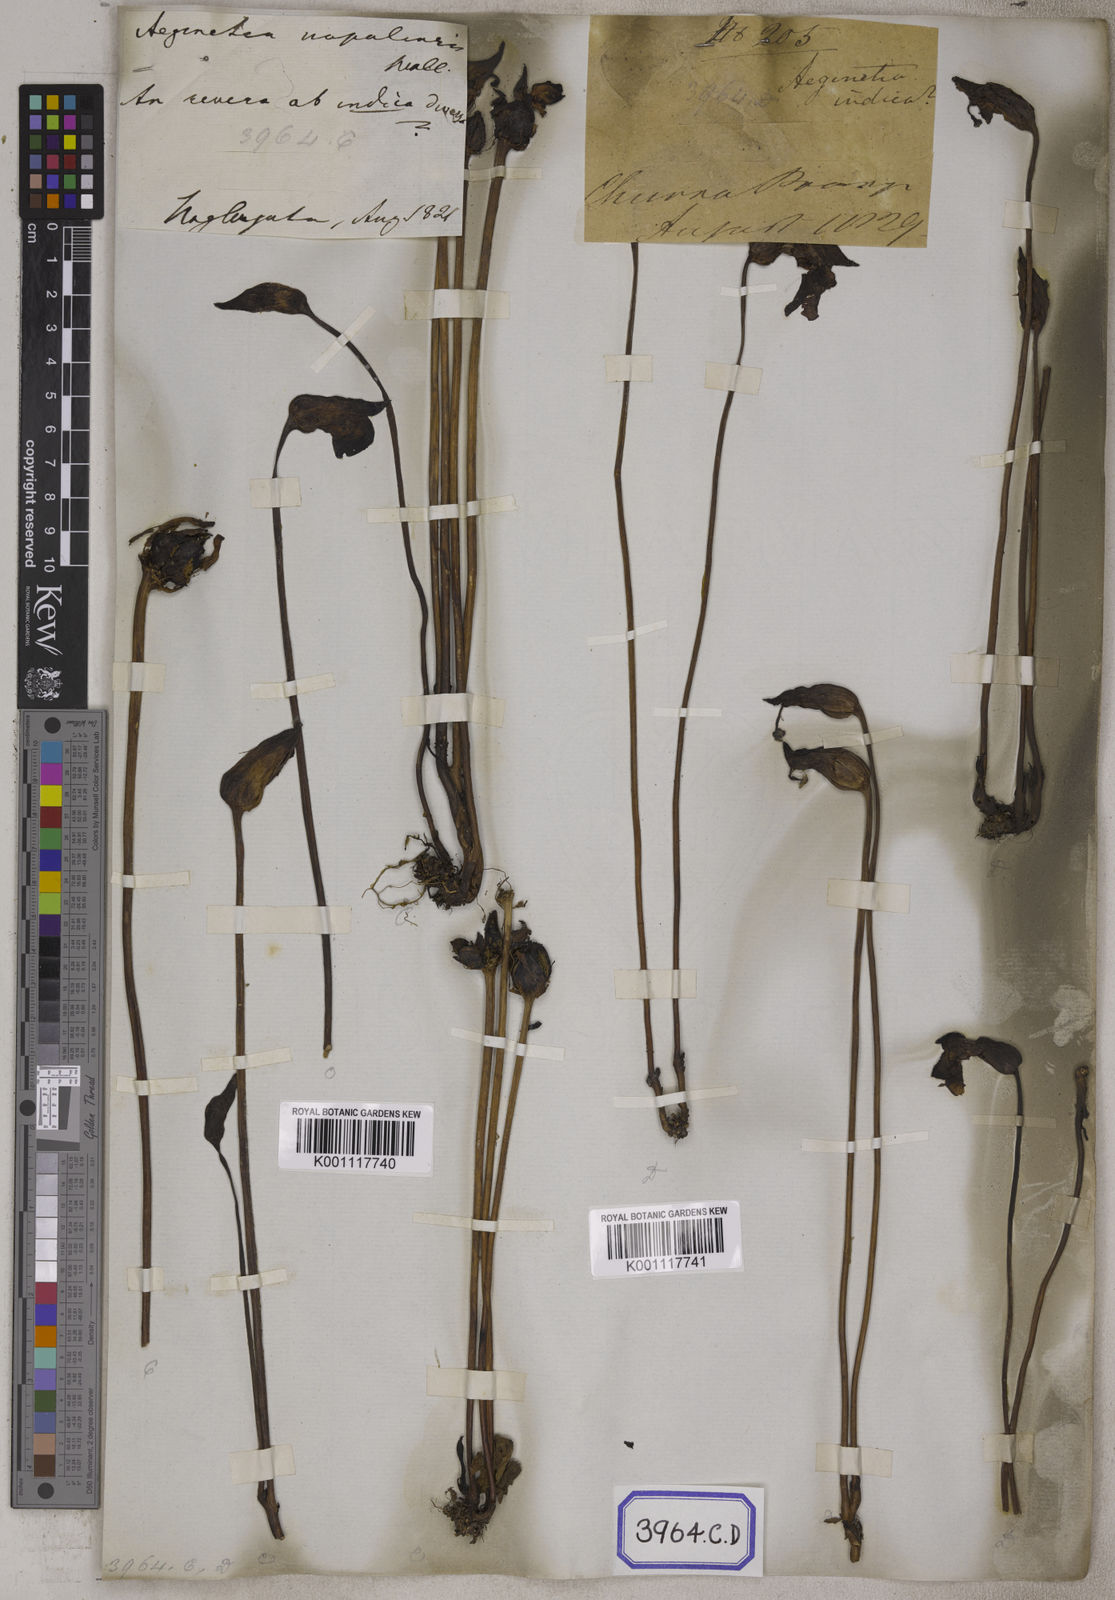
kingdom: Plantae
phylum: Tracheophyta
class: Magnoliopsida
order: Lamiales
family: Orobanchaceae
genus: Aeginetia
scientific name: Aeginetia
